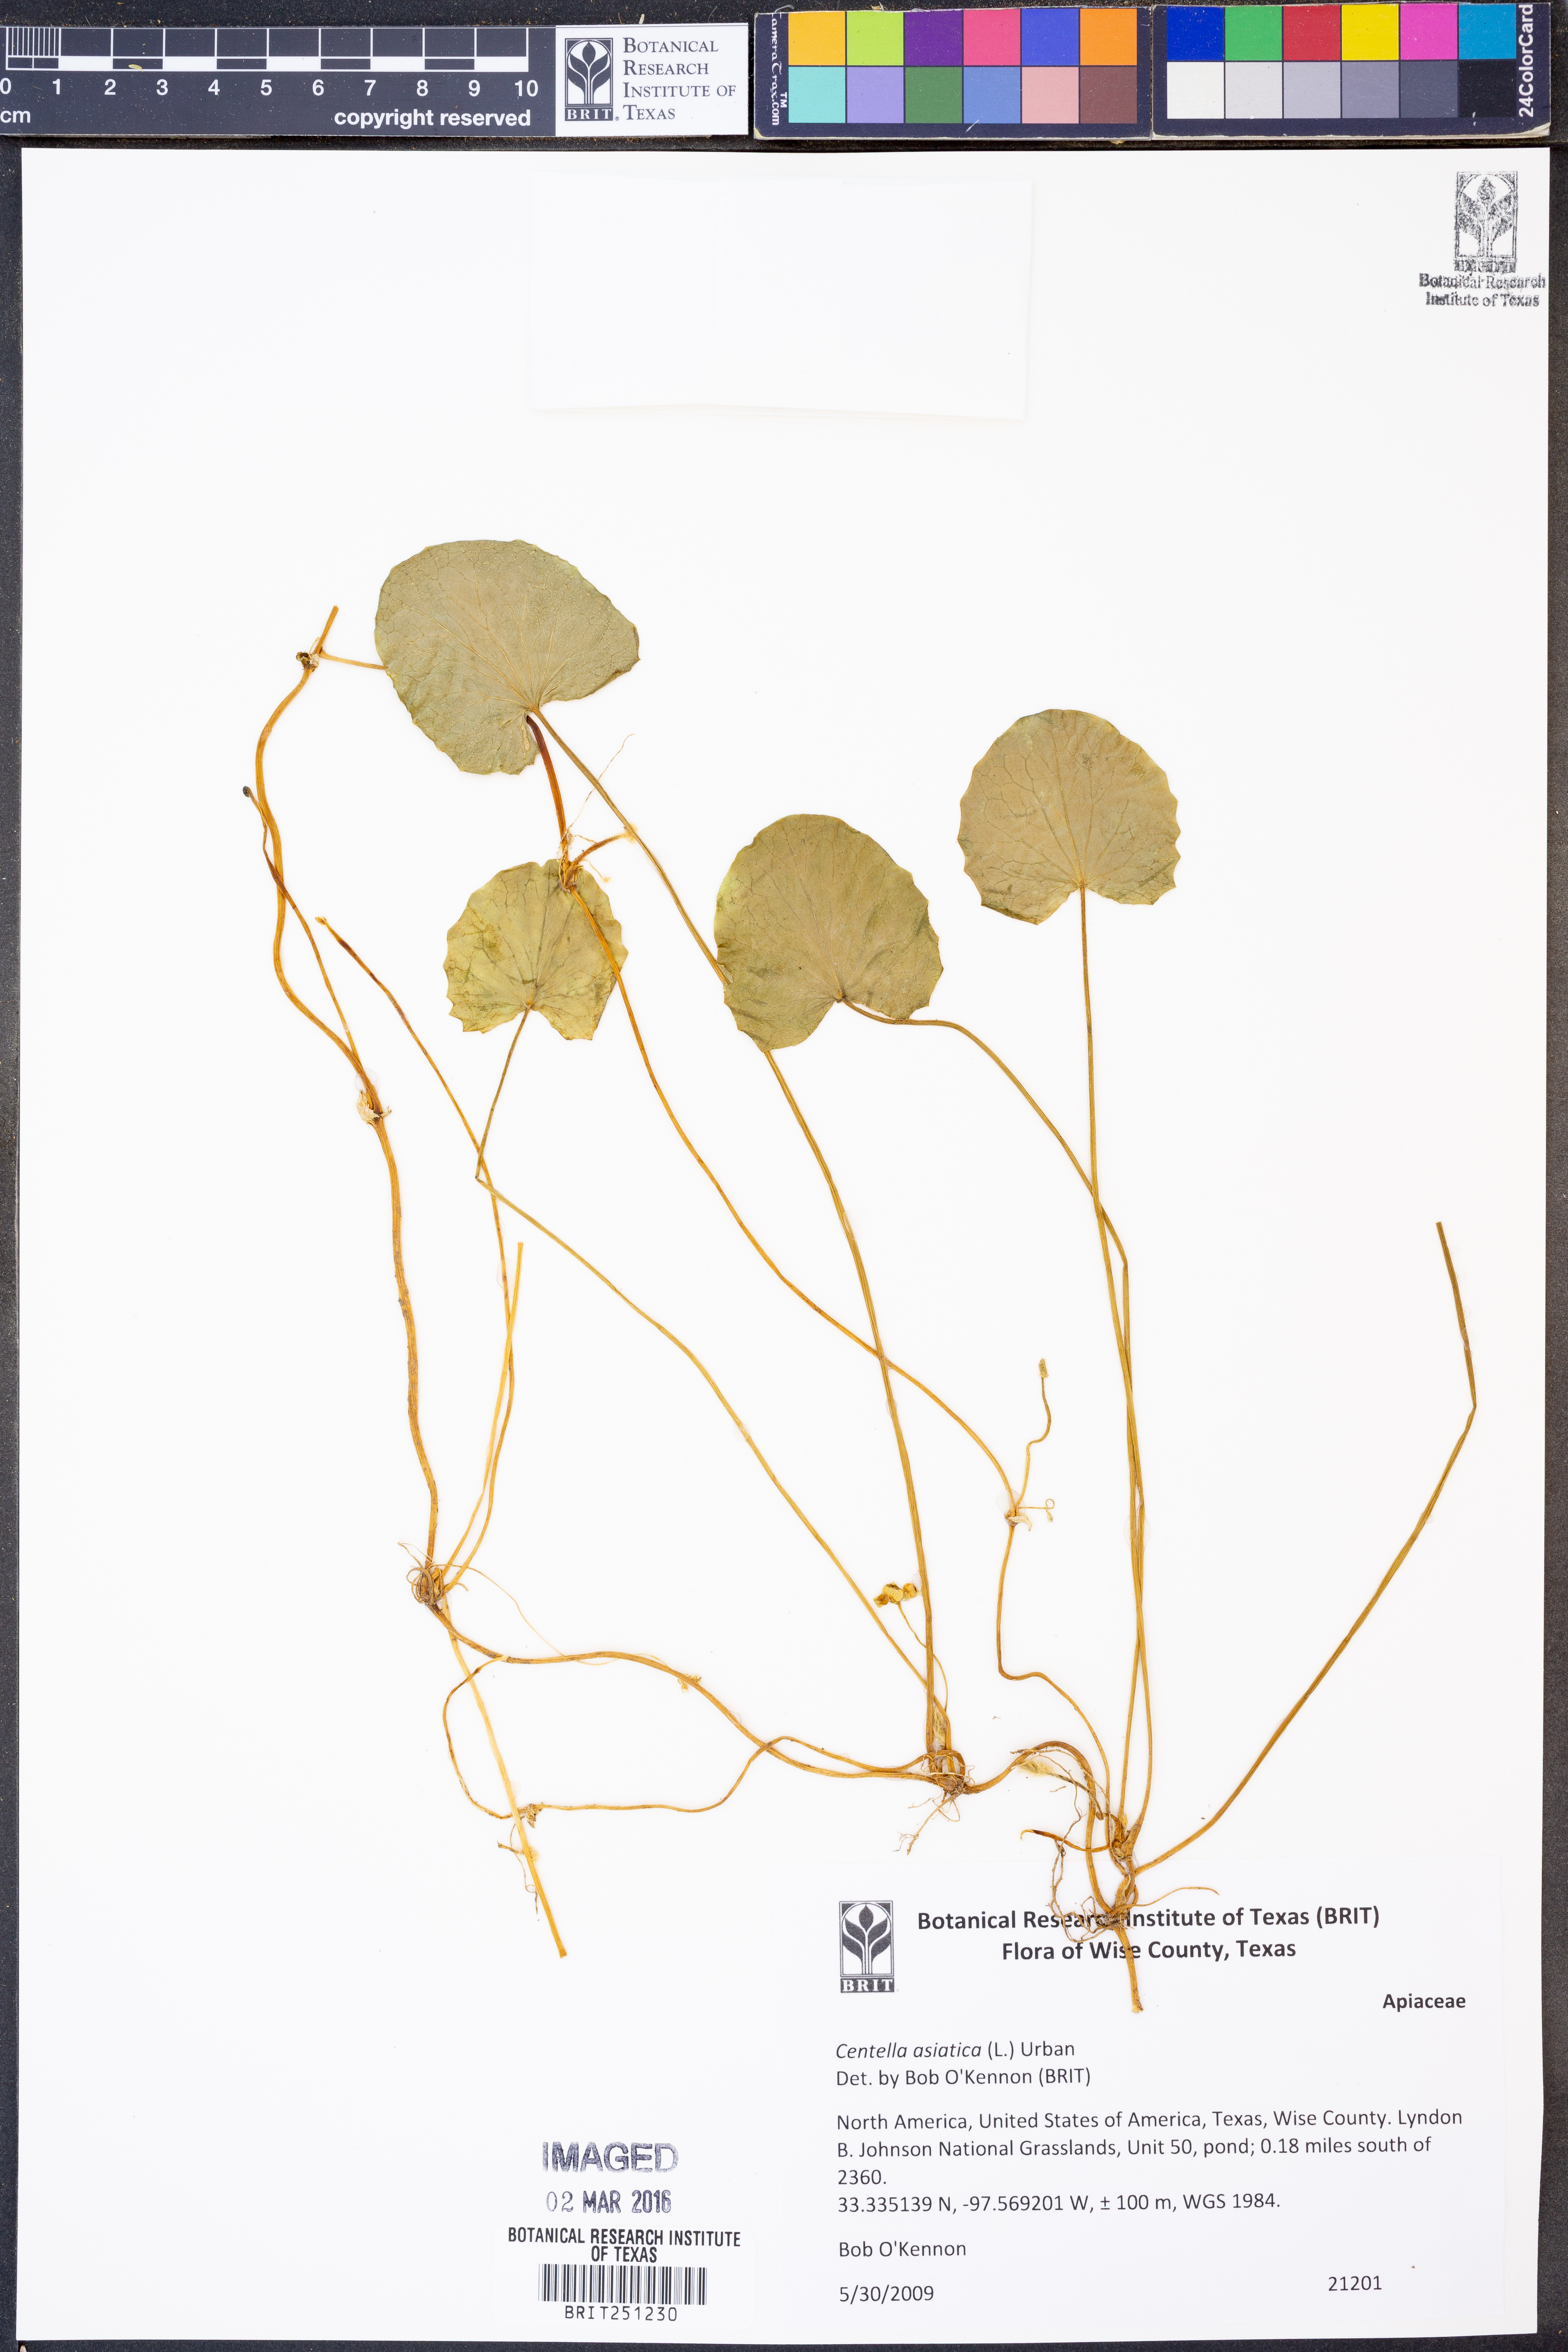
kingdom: Plantae
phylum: Tracheophyta
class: Magnoliopsida
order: Apiales
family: Apiaceae
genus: Centella
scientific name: Centella asiatica
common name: Spadeleaf
